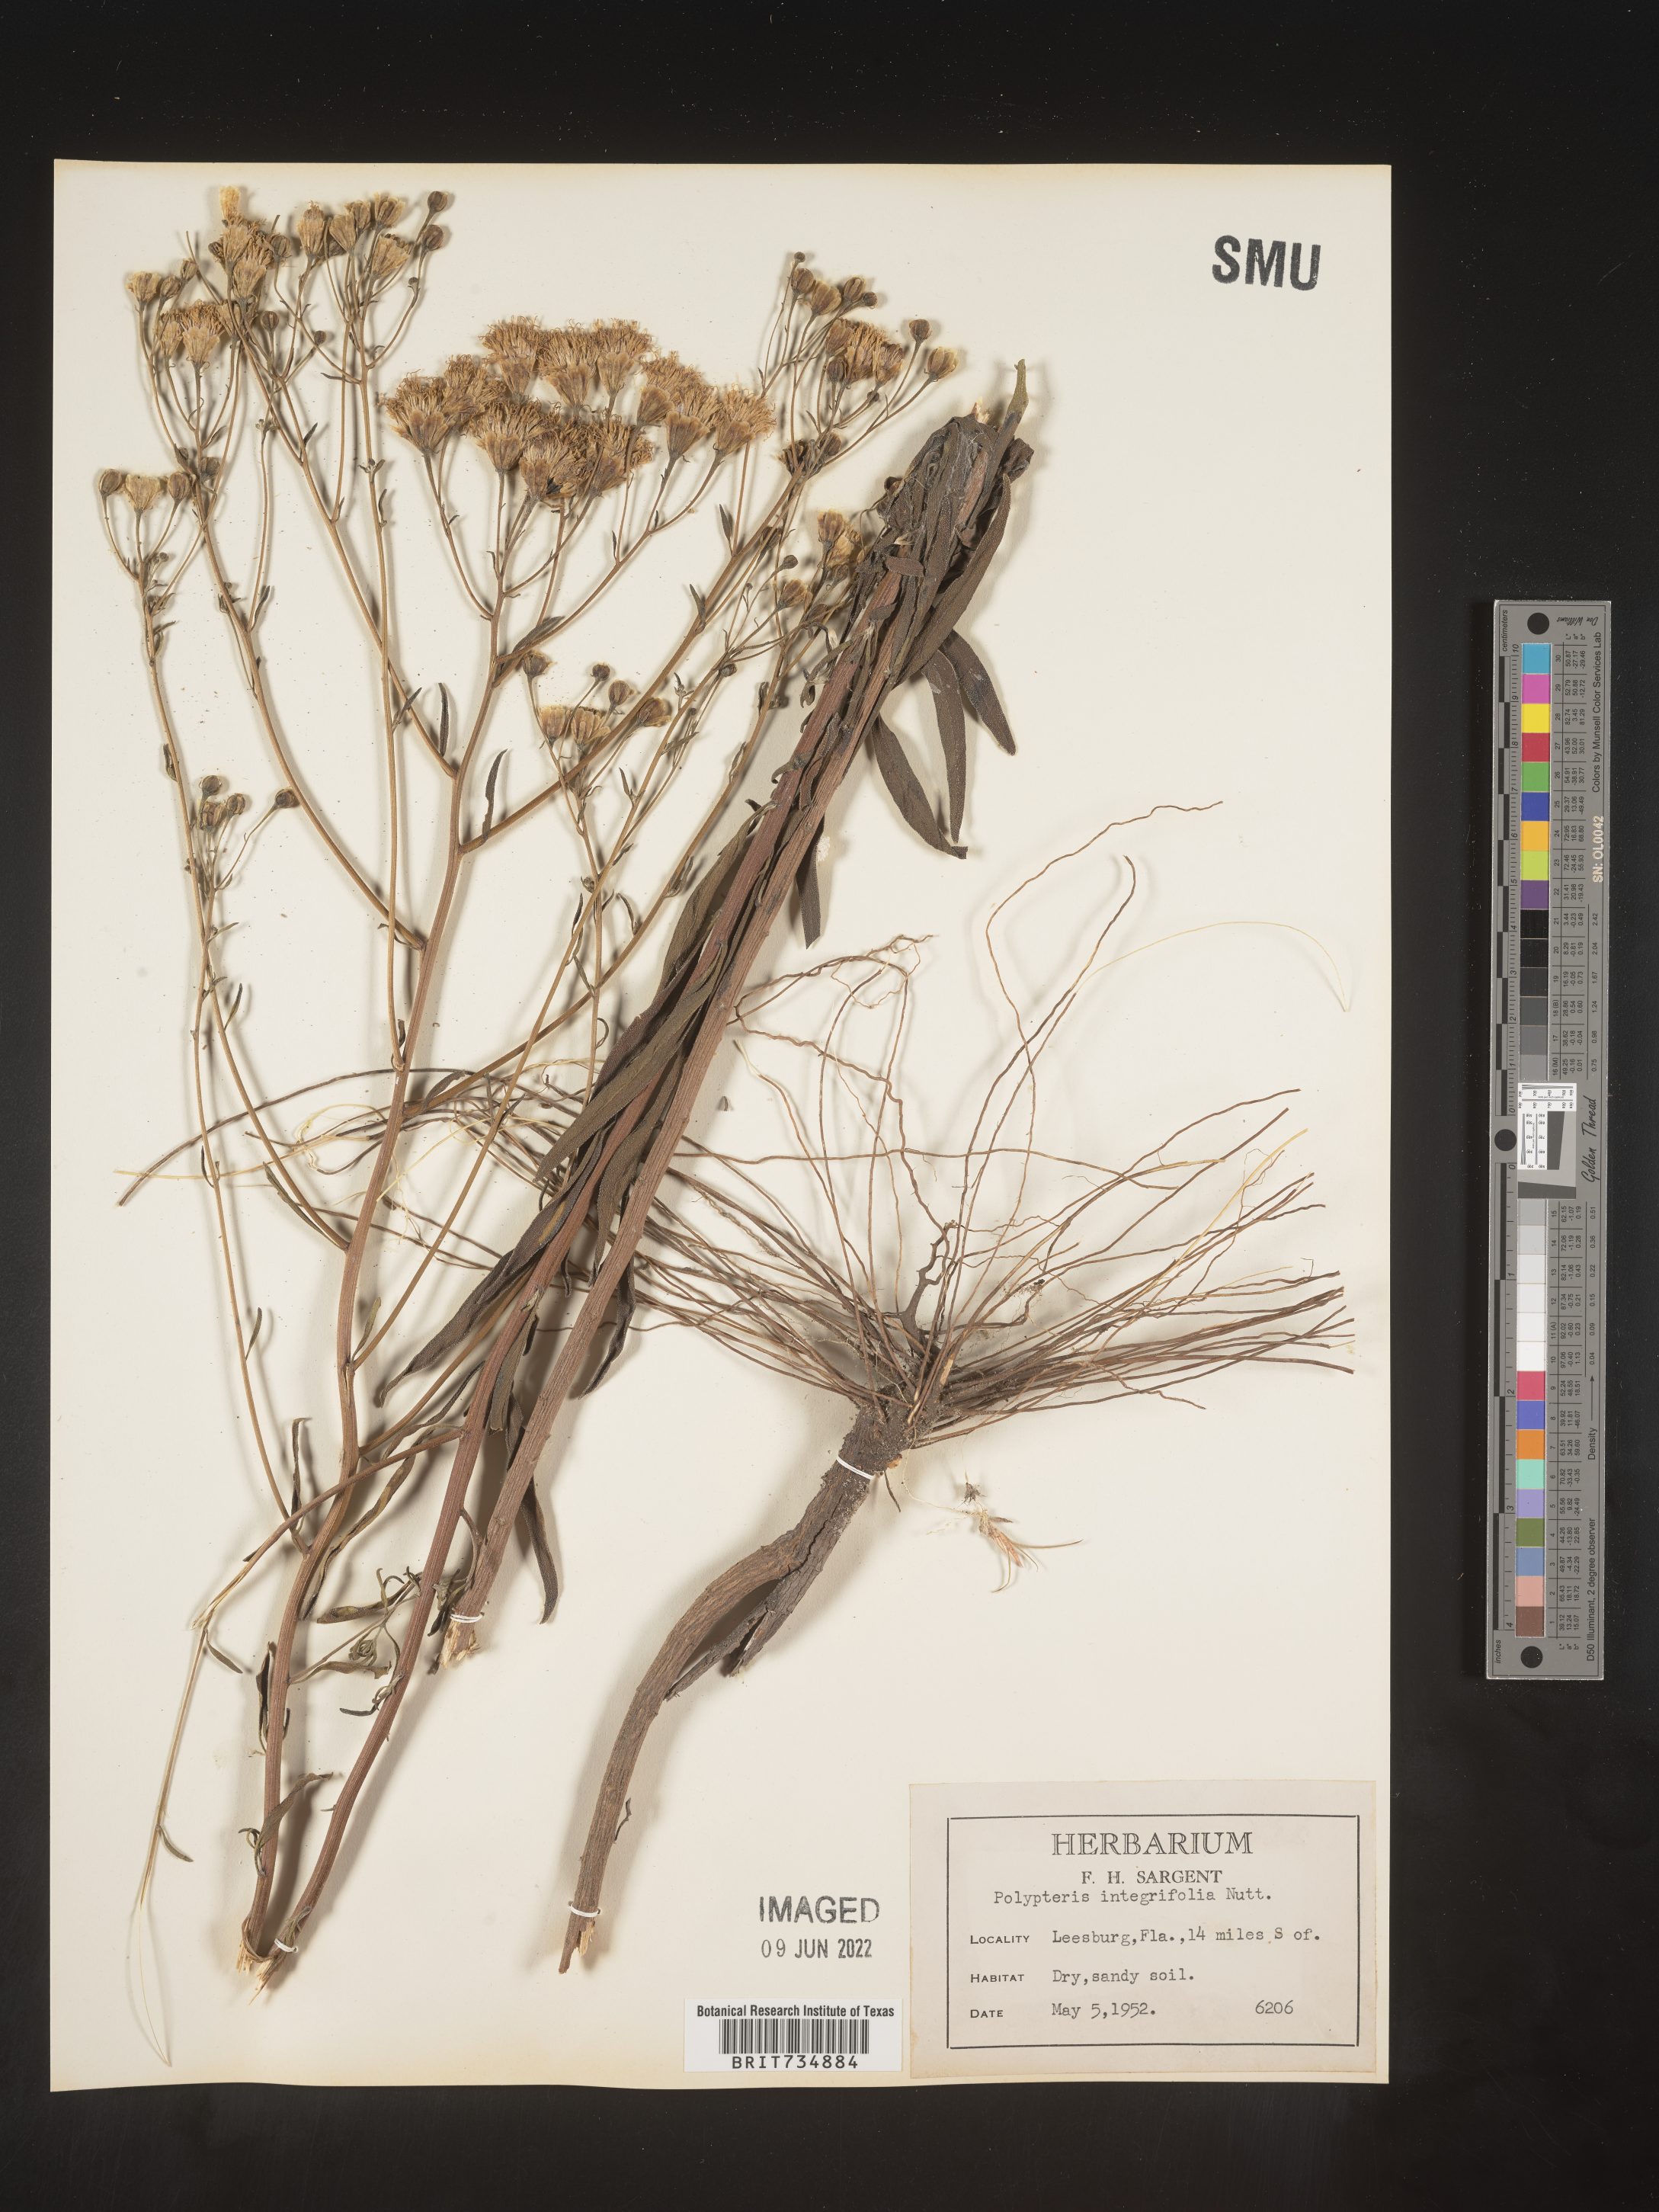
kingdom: Plantae
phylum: Tracheophyta
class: Magnoliopsida
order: Asterales
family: Asteraceae
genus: Palafoxia
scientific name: Palafoxia integrifolia
